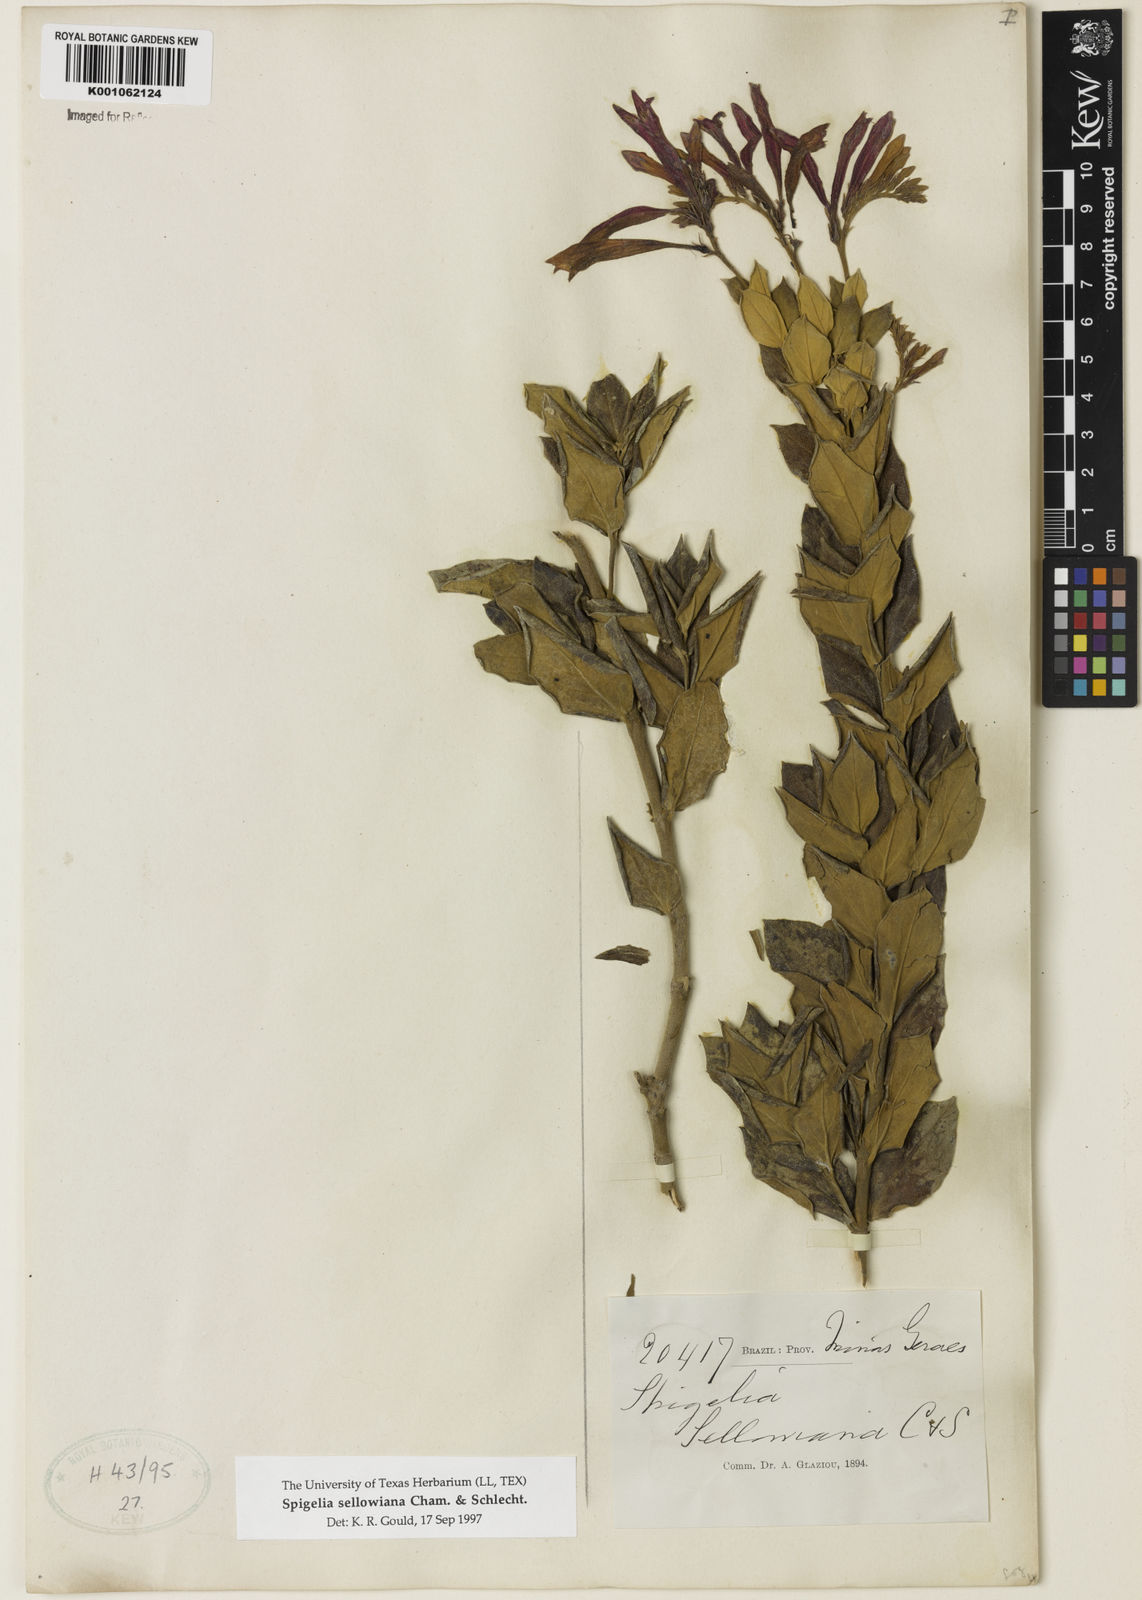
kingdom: Plantae
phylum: Tracheophyta
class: Magnoliopsida
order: Gentianales
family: Loganiaceae
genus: Spigelia
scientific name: Spigelia sellowiana
